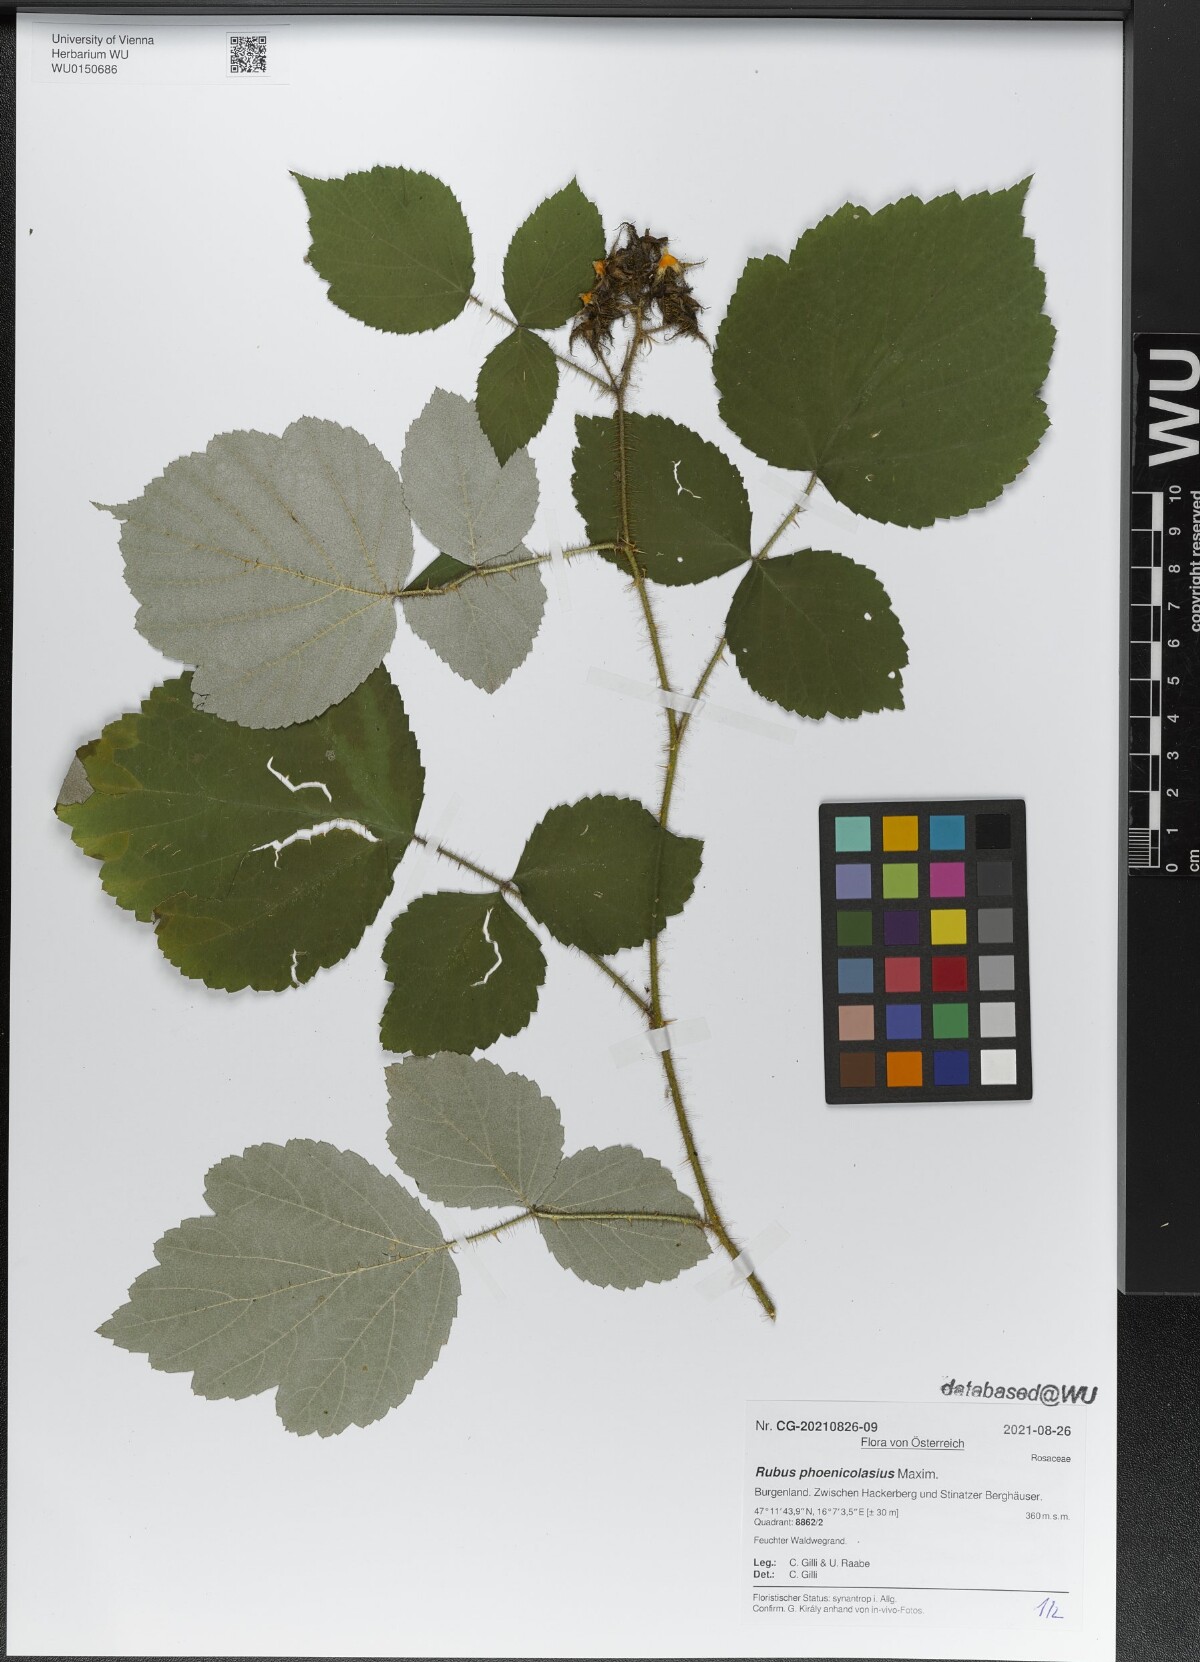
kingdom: Plantae
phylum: Tracheophyta
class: Magnoliopsida
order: Rosales
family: Rosaceae
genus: Rubus
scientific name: Rubus phoenicolasius
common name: Japanese wineberry
